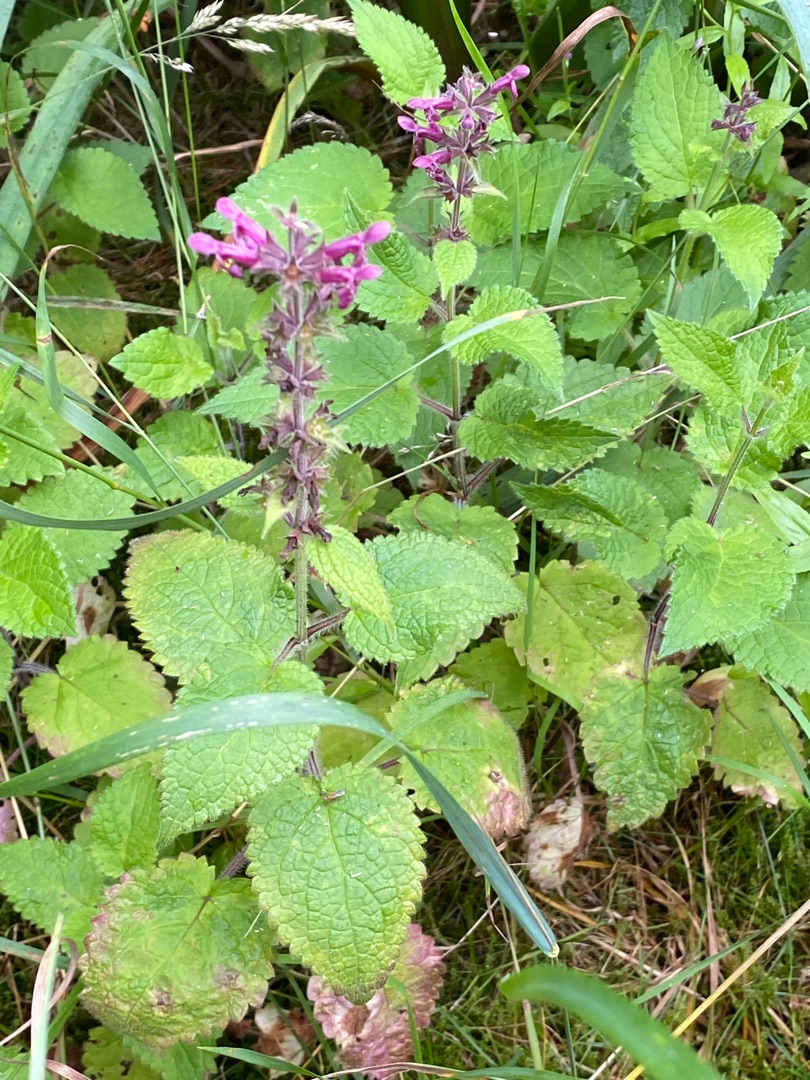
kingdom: Plantae
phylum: Tracheophyta
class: Magnoliopsida
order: Lamiales
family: Lamiaceae
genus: Stachys
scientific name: Stachys sylvatica
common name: Skov-galtetand
